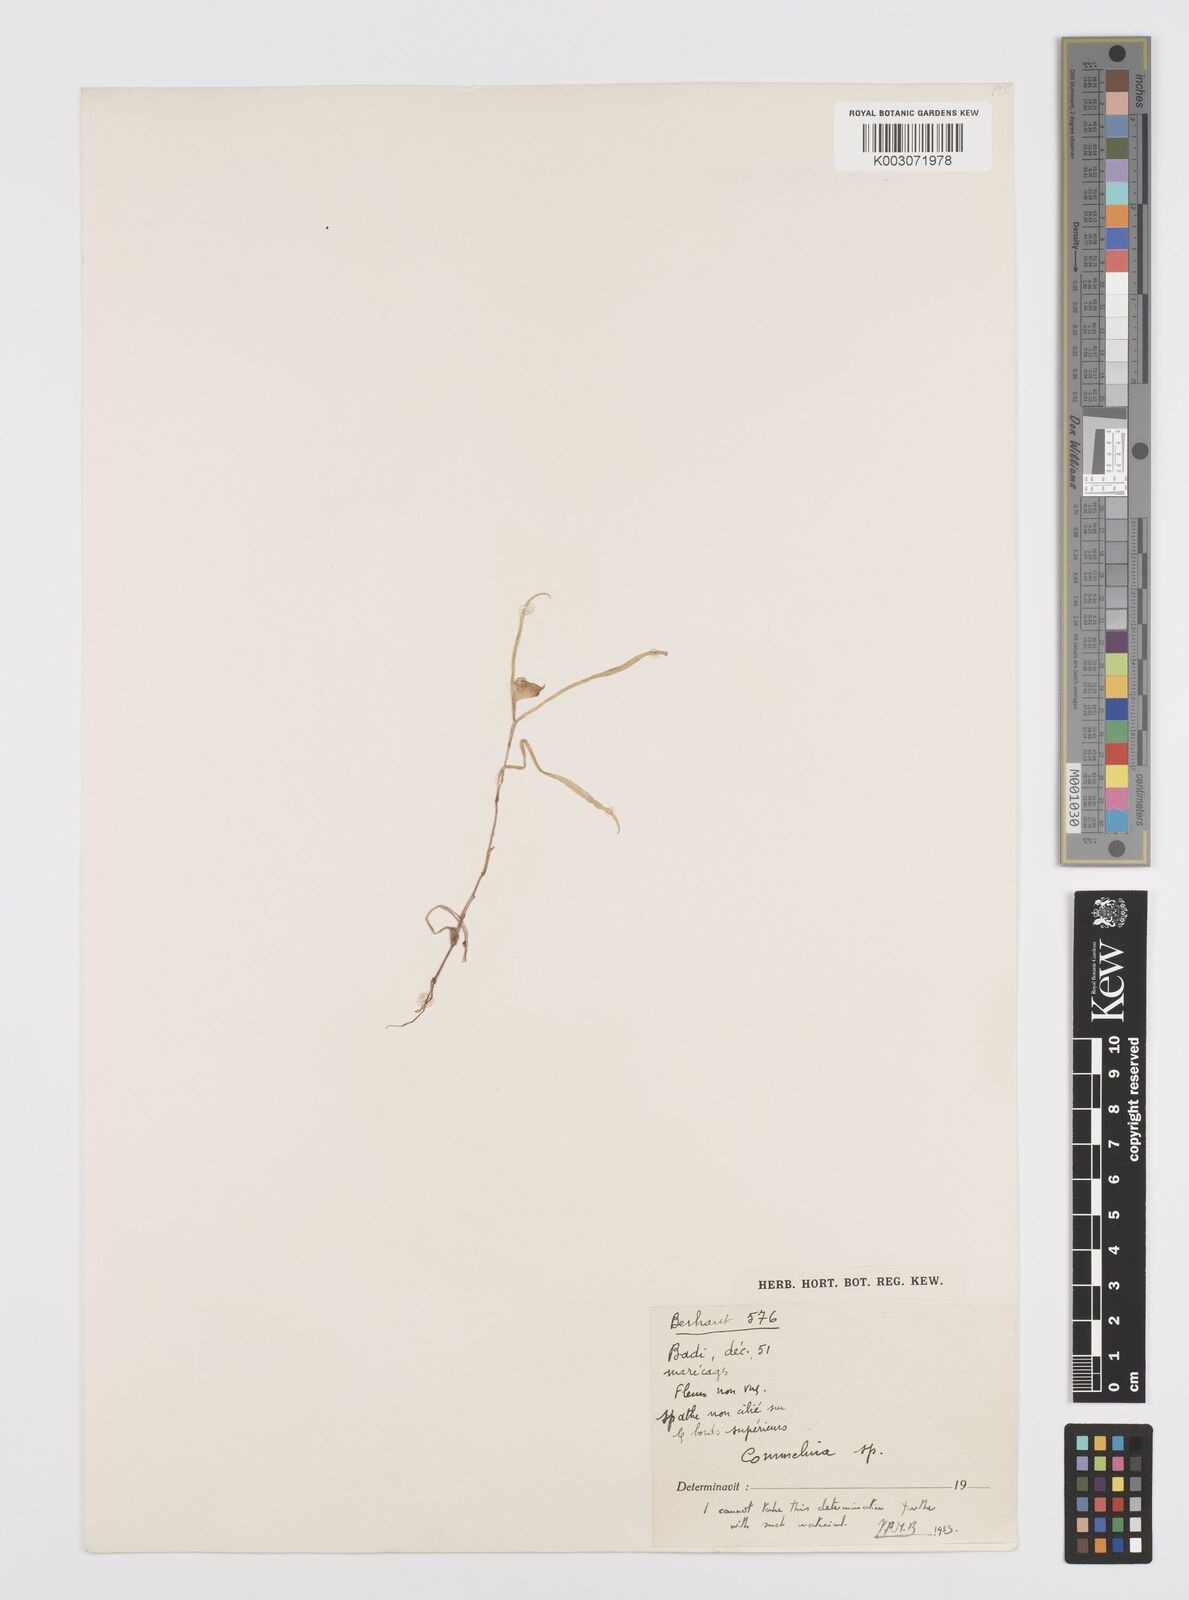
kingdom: Plantae
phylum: Tracheophyta
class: Liliopsida
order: Commelinales
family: Commelinaceae
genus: Commelina
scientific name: Commelina
